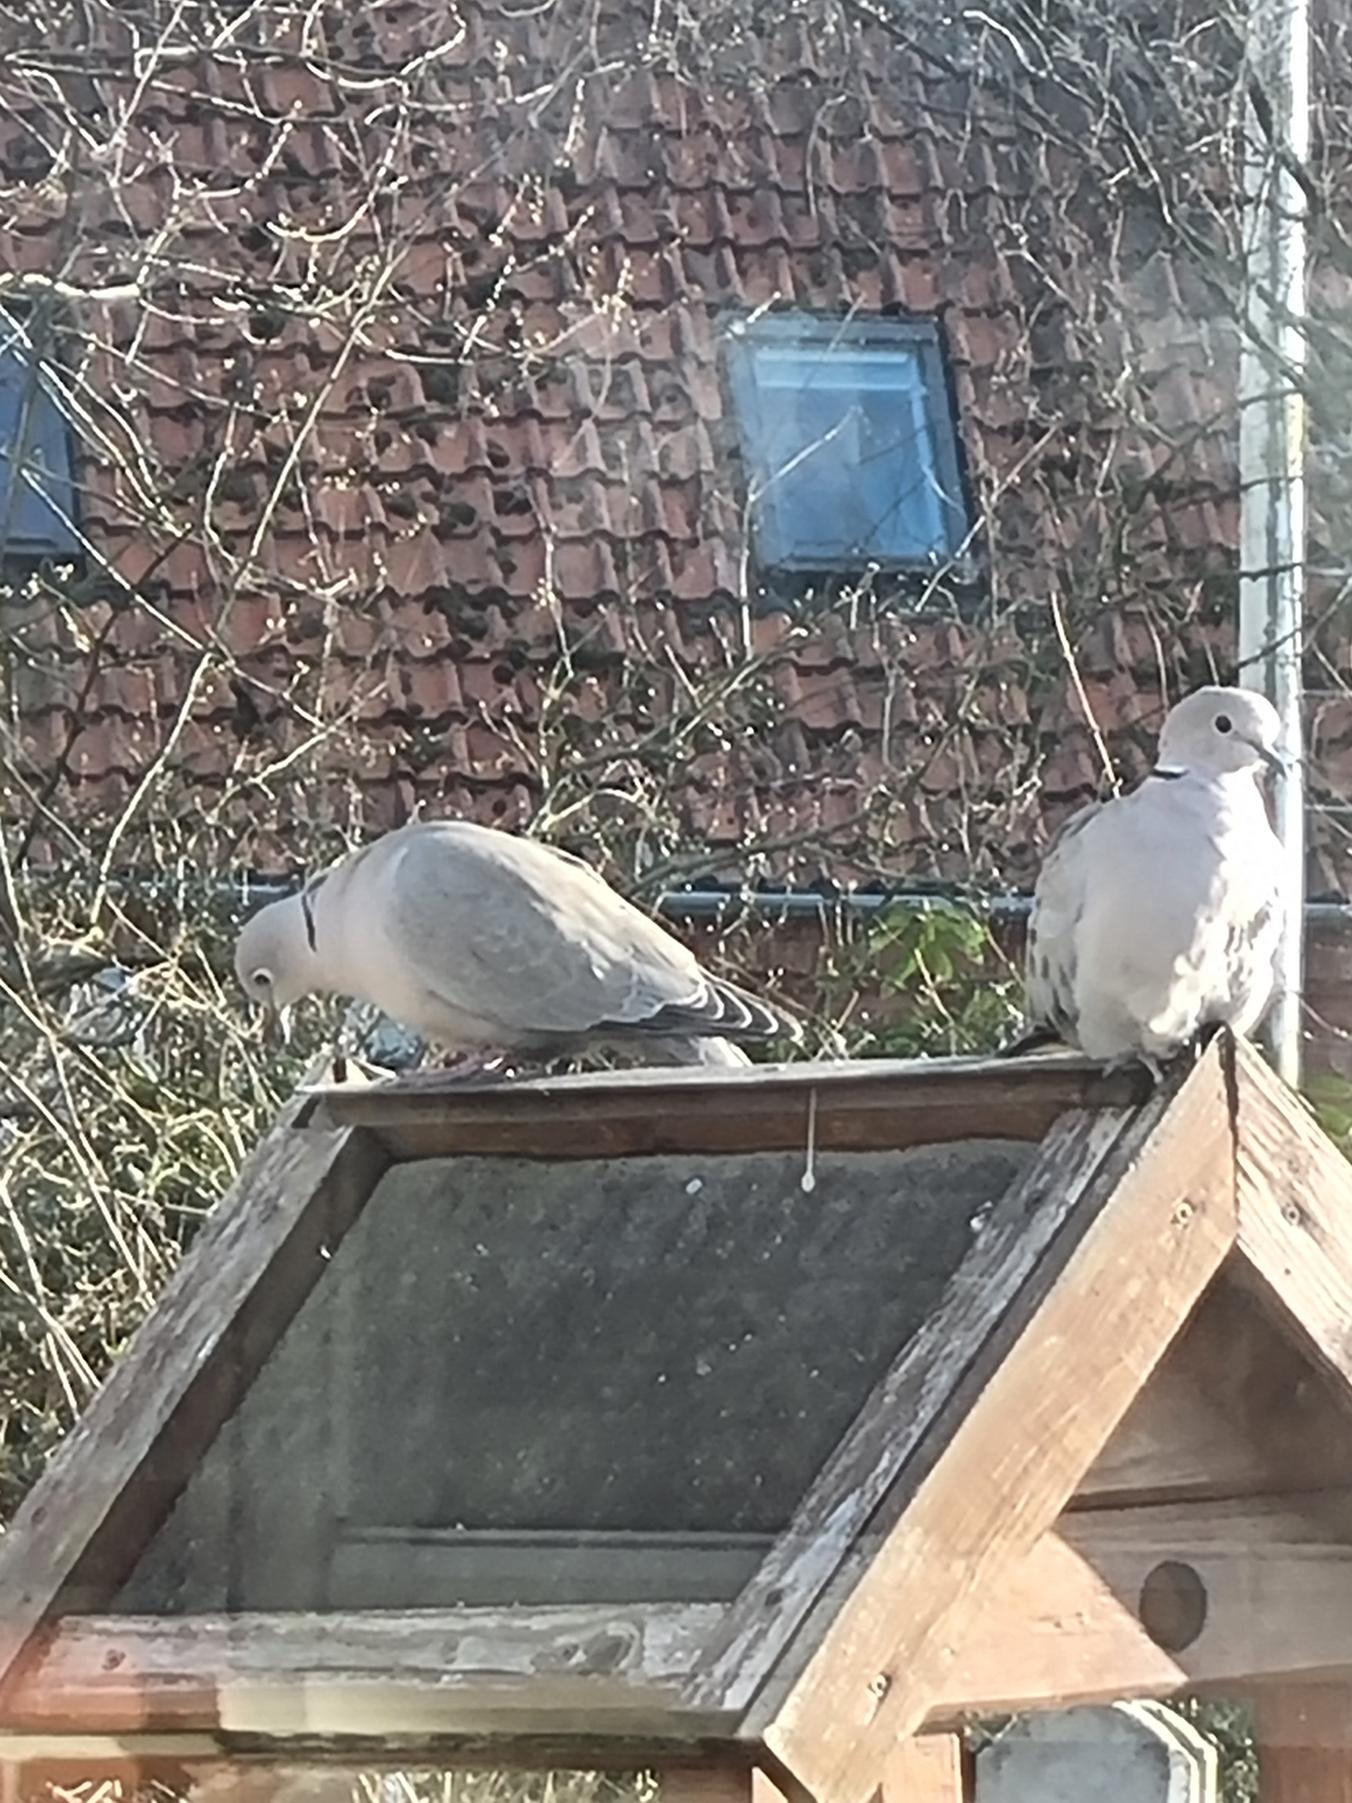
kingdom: Animalia
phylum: Chordata
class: Aves
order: Columbiformes
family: Columbidae
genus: Streptopelia
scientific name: Streptopelia decaocto
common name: Tyrkerdue
